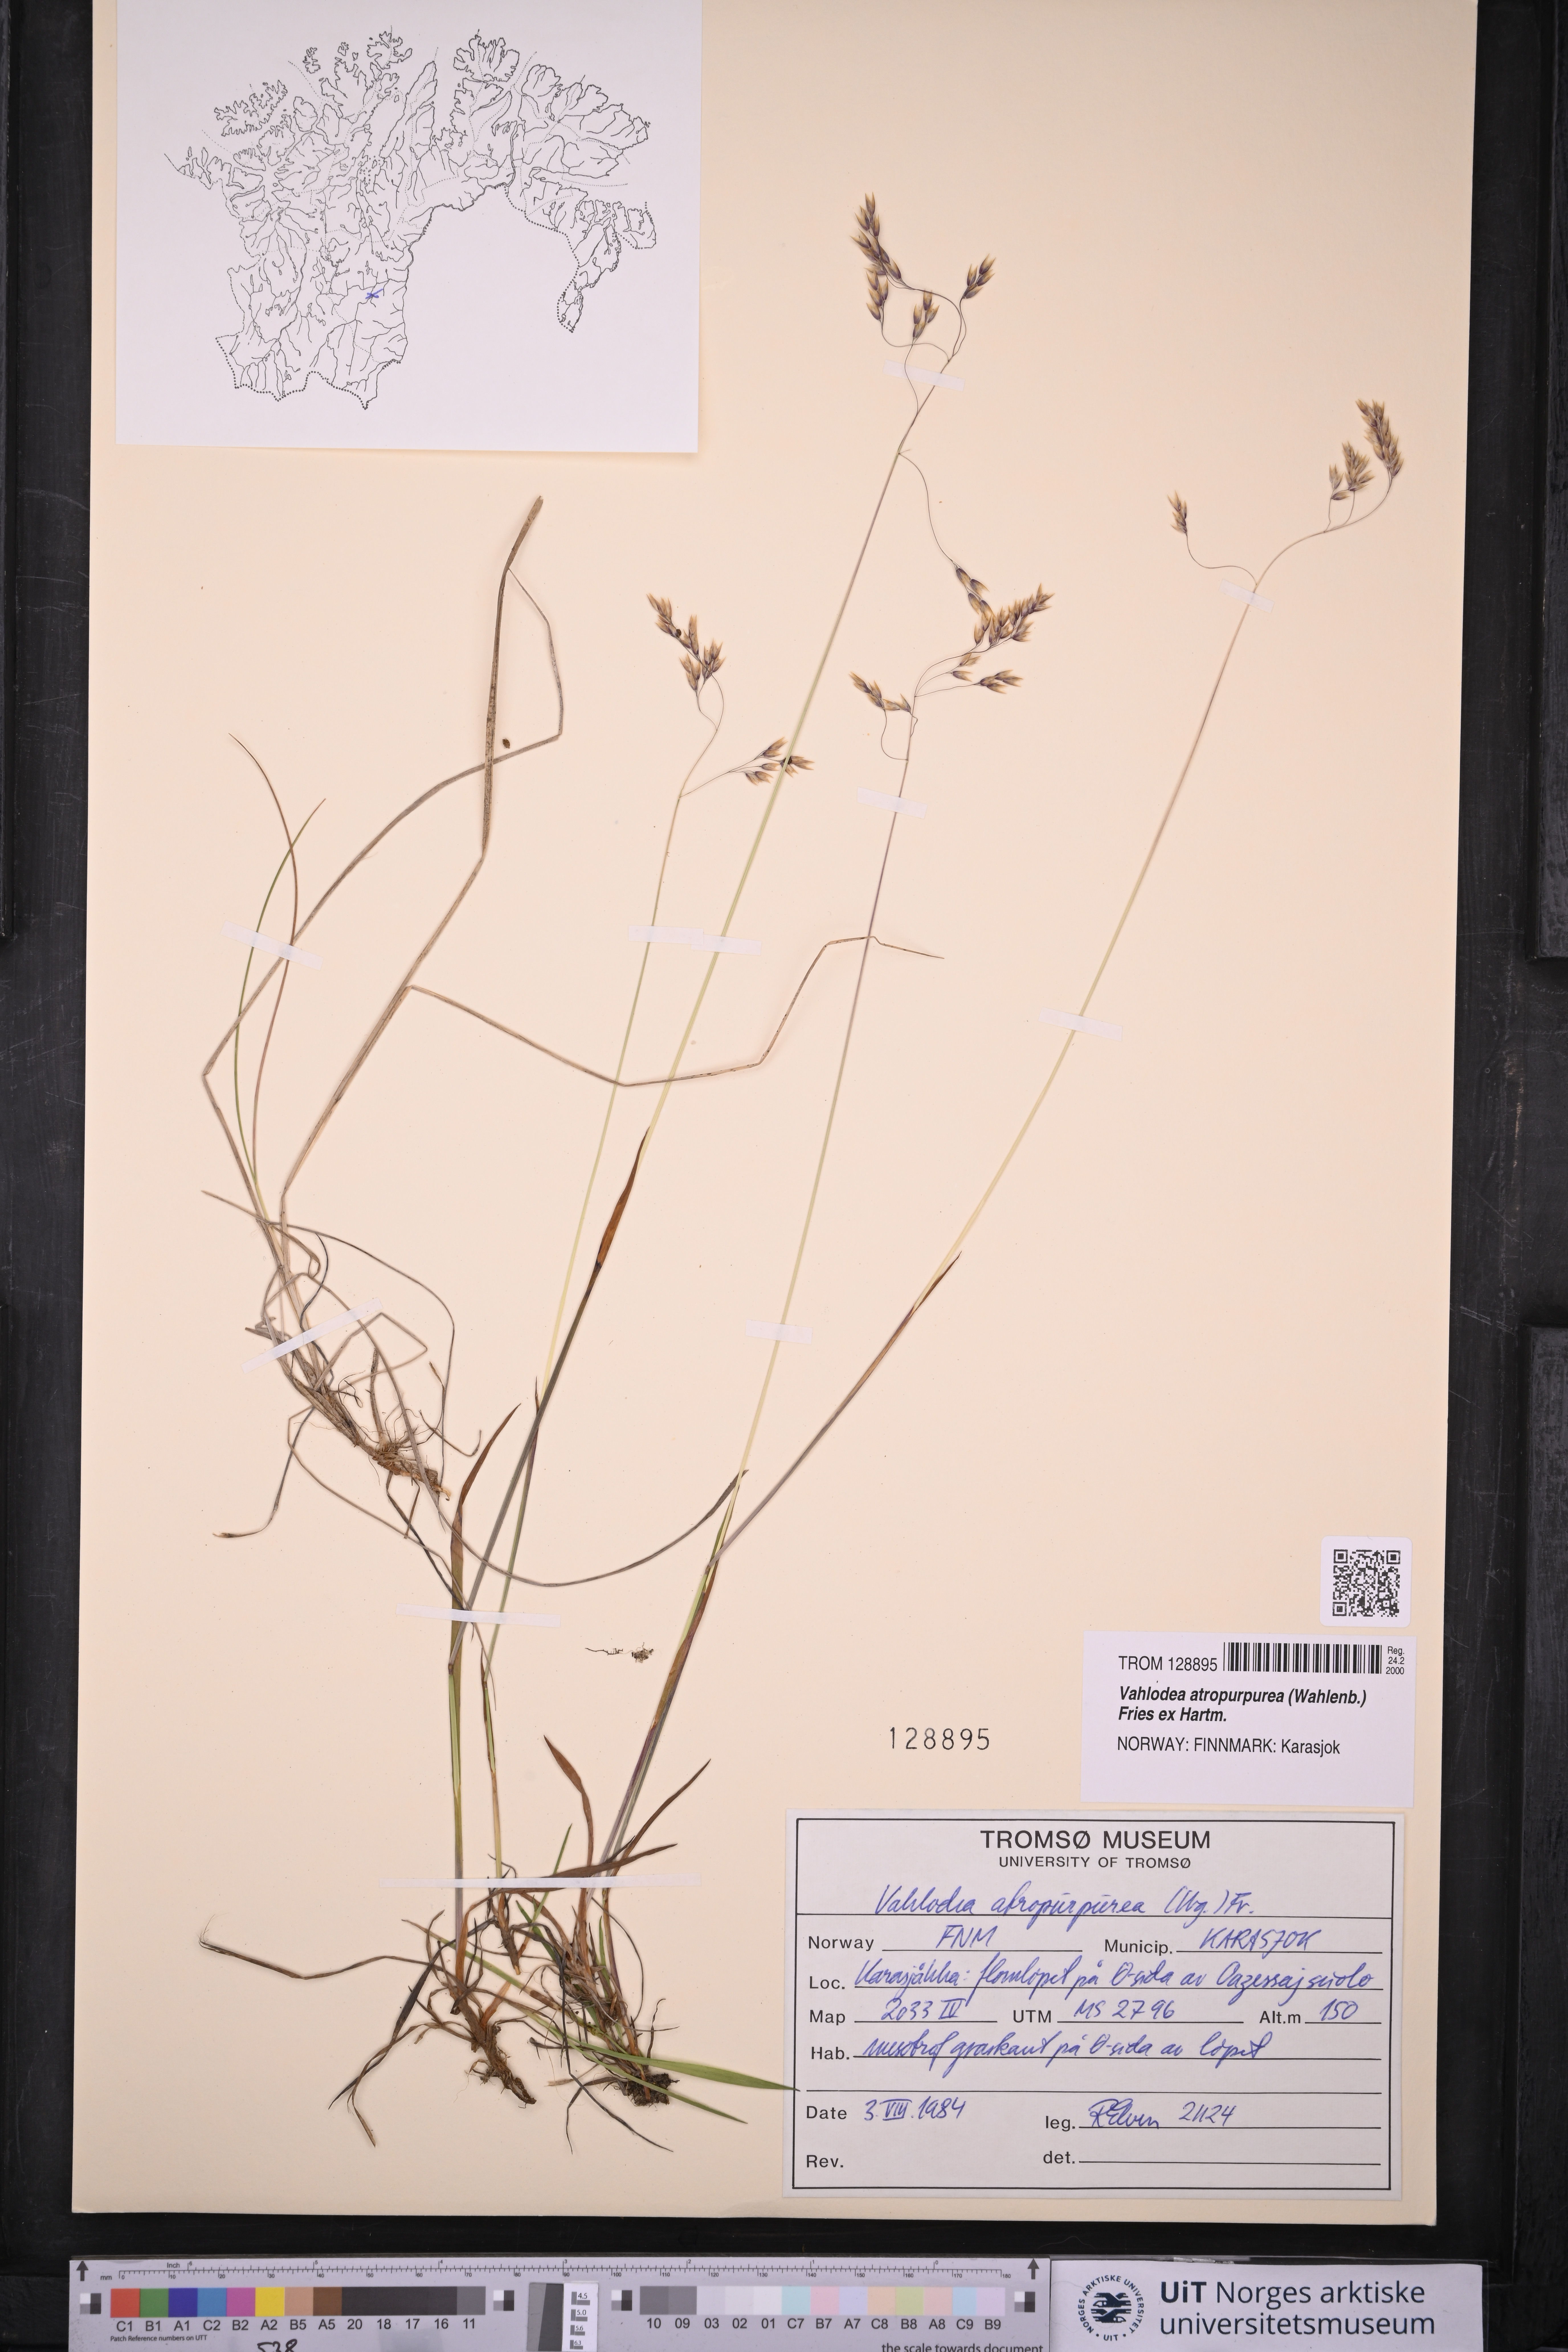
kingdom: Plantae
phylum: Tracheophyta
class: Liliopsida
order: Poales
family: Poaceae
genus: Vahlodea
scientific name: Vahlodea atropurpurea
